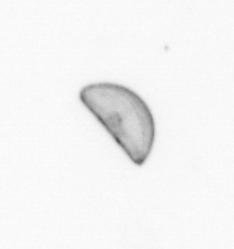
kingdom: Chromista
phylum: Ochrophyta
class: Bacillariophyceae
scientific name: Bacillariophyceae
